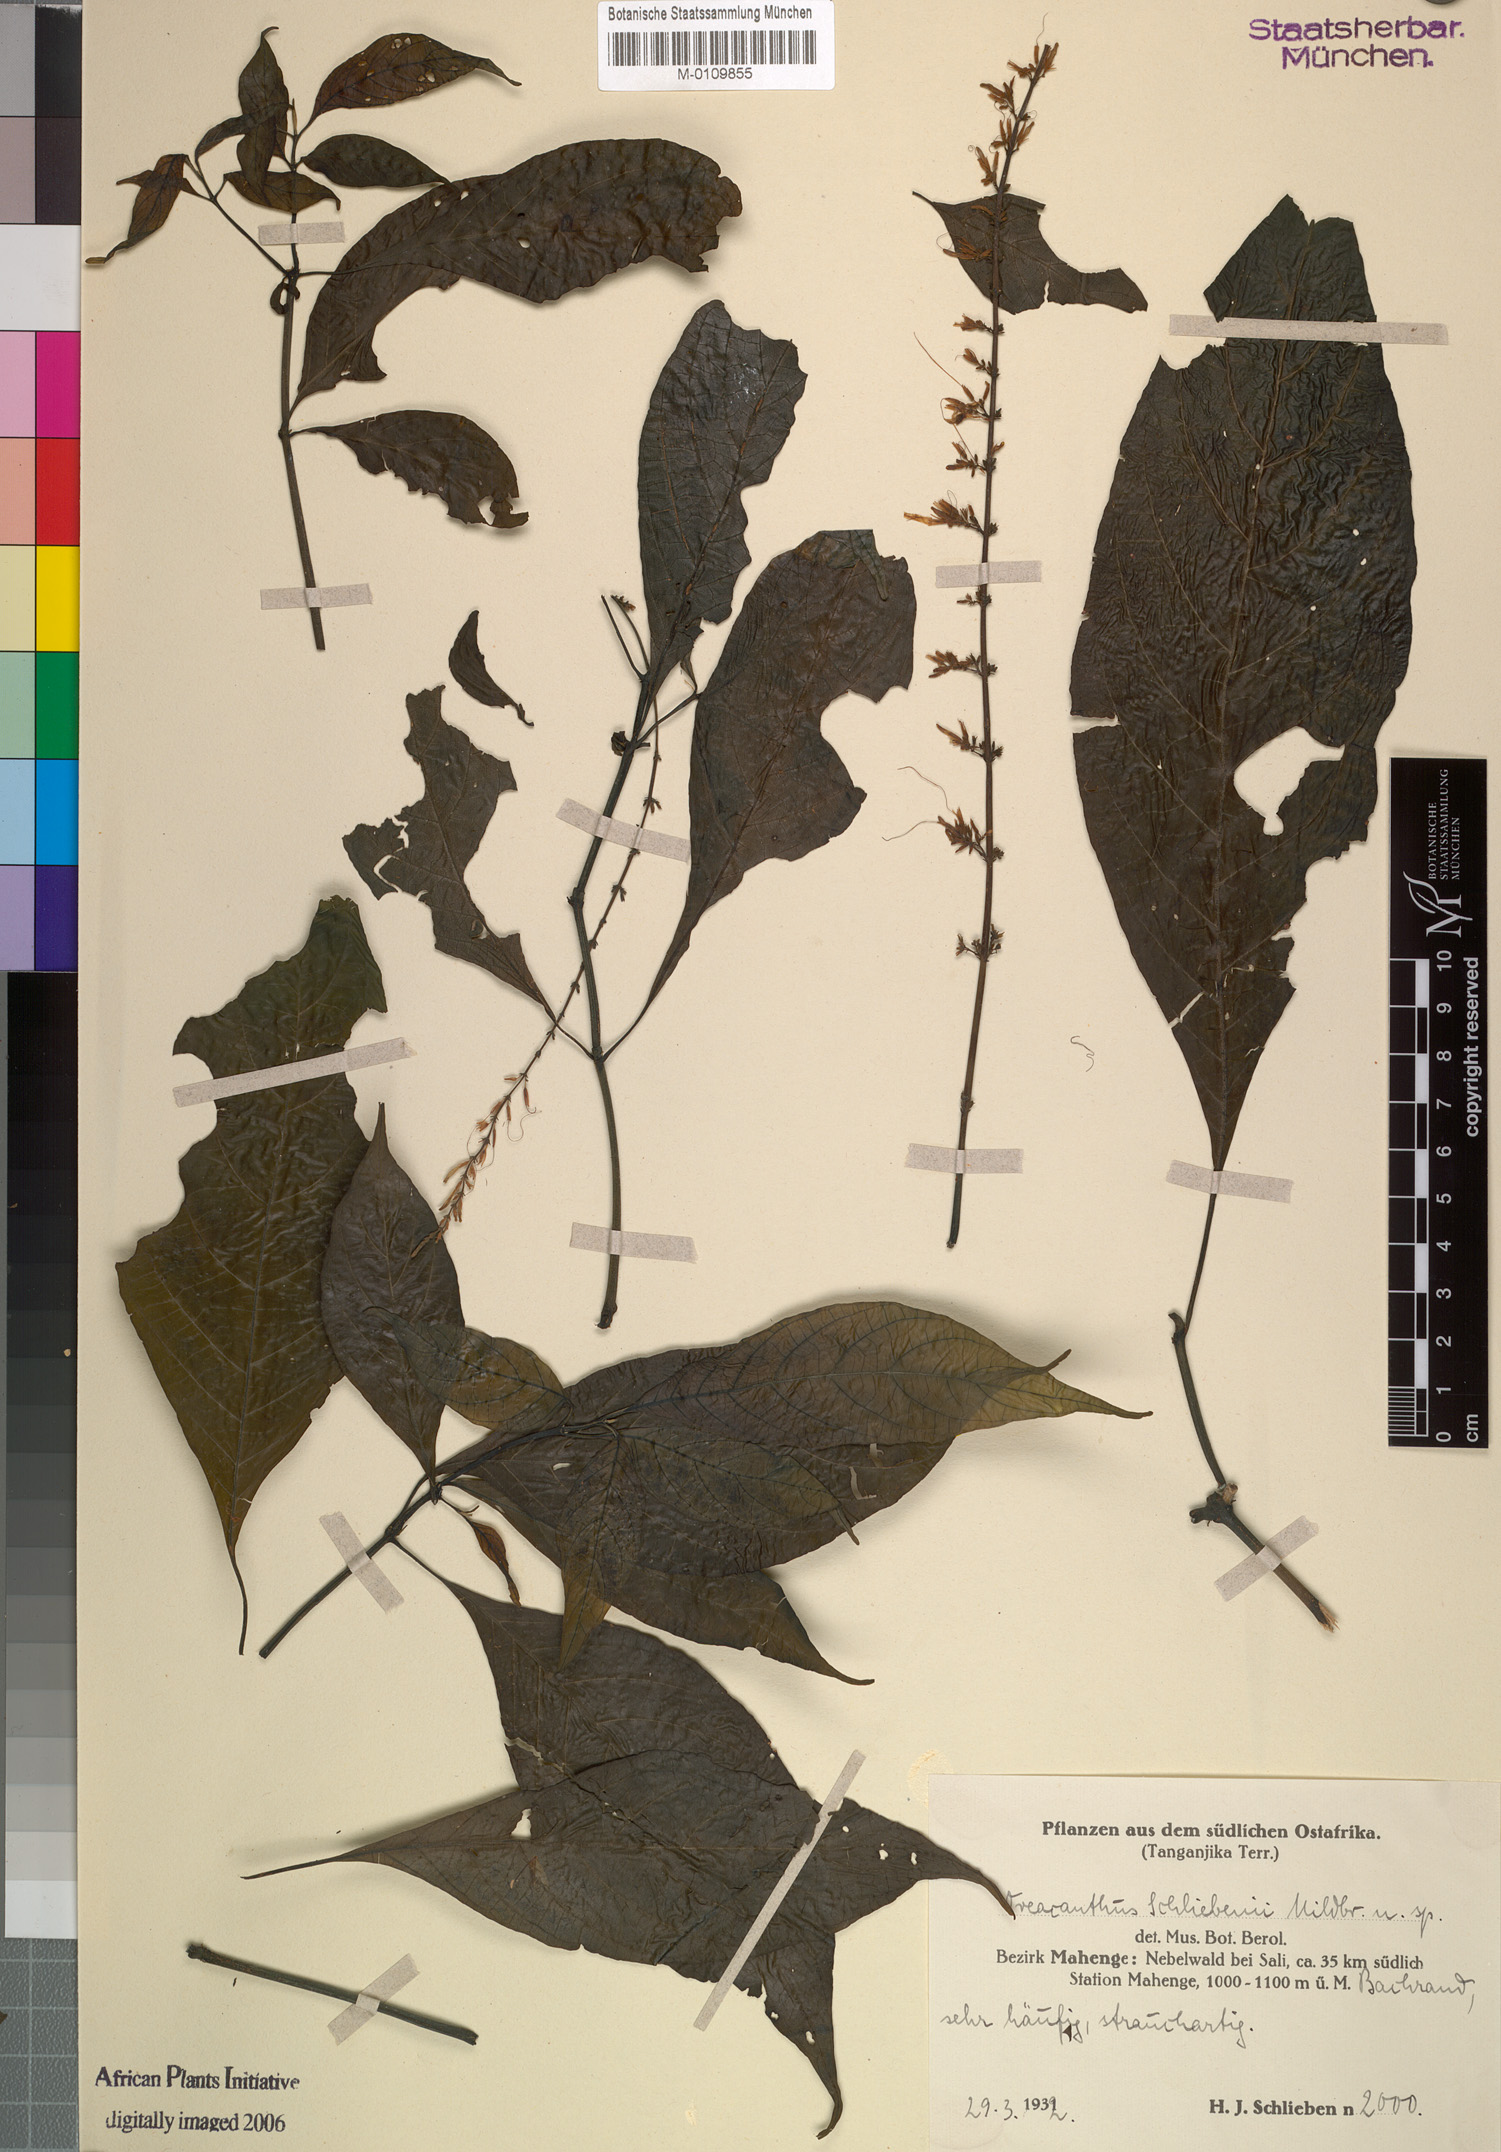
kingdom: Plantae
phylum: Tracheophyta
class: Magnoliopsida
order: Lamiales
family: Acanthaceae
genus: Brachystephanus
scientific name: Brachystephanus schliebenii
